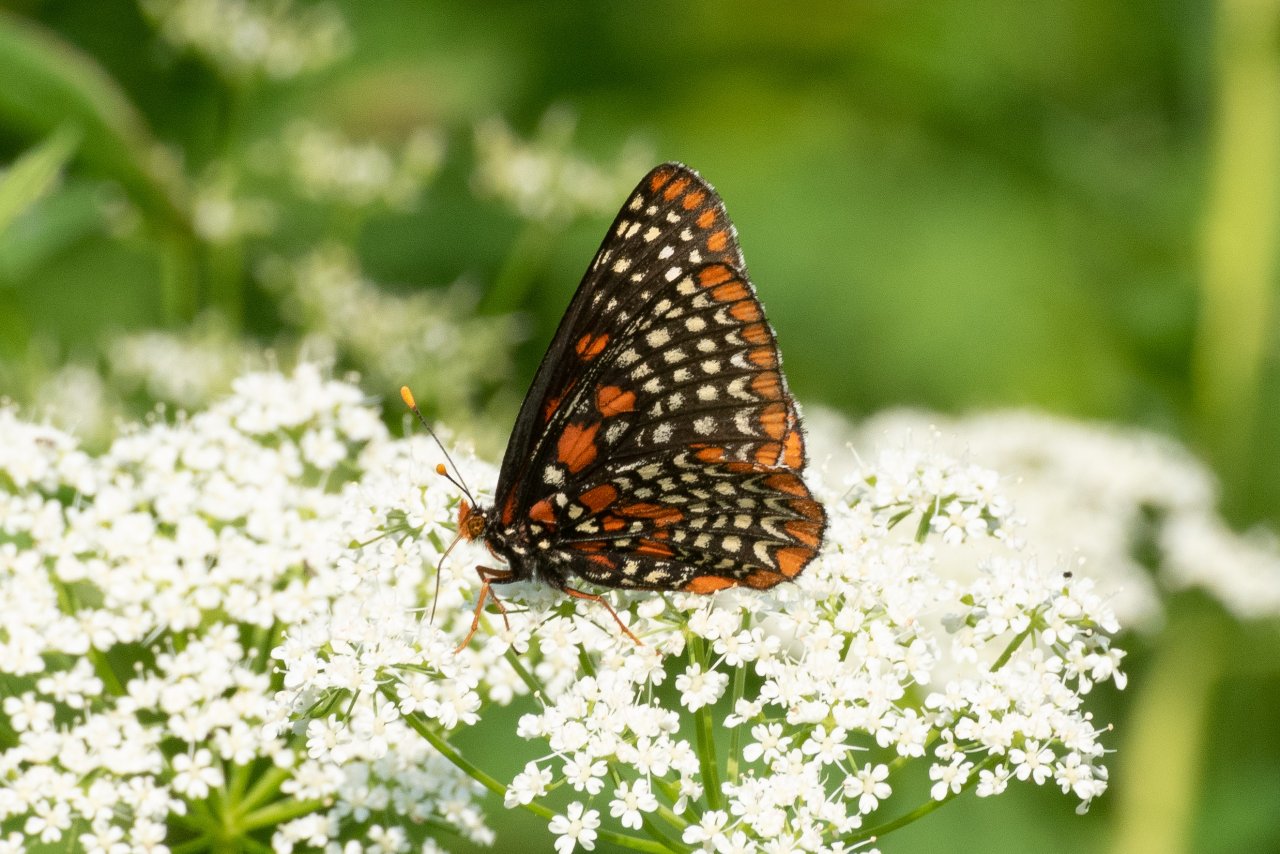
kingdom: Animalia
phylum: Arthropoda
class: Insecta
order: Lepidoptera
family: Nymphalidae
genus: Euphydryas
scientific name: Euphydryas phaeton
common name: Baltimore Checkerspot
